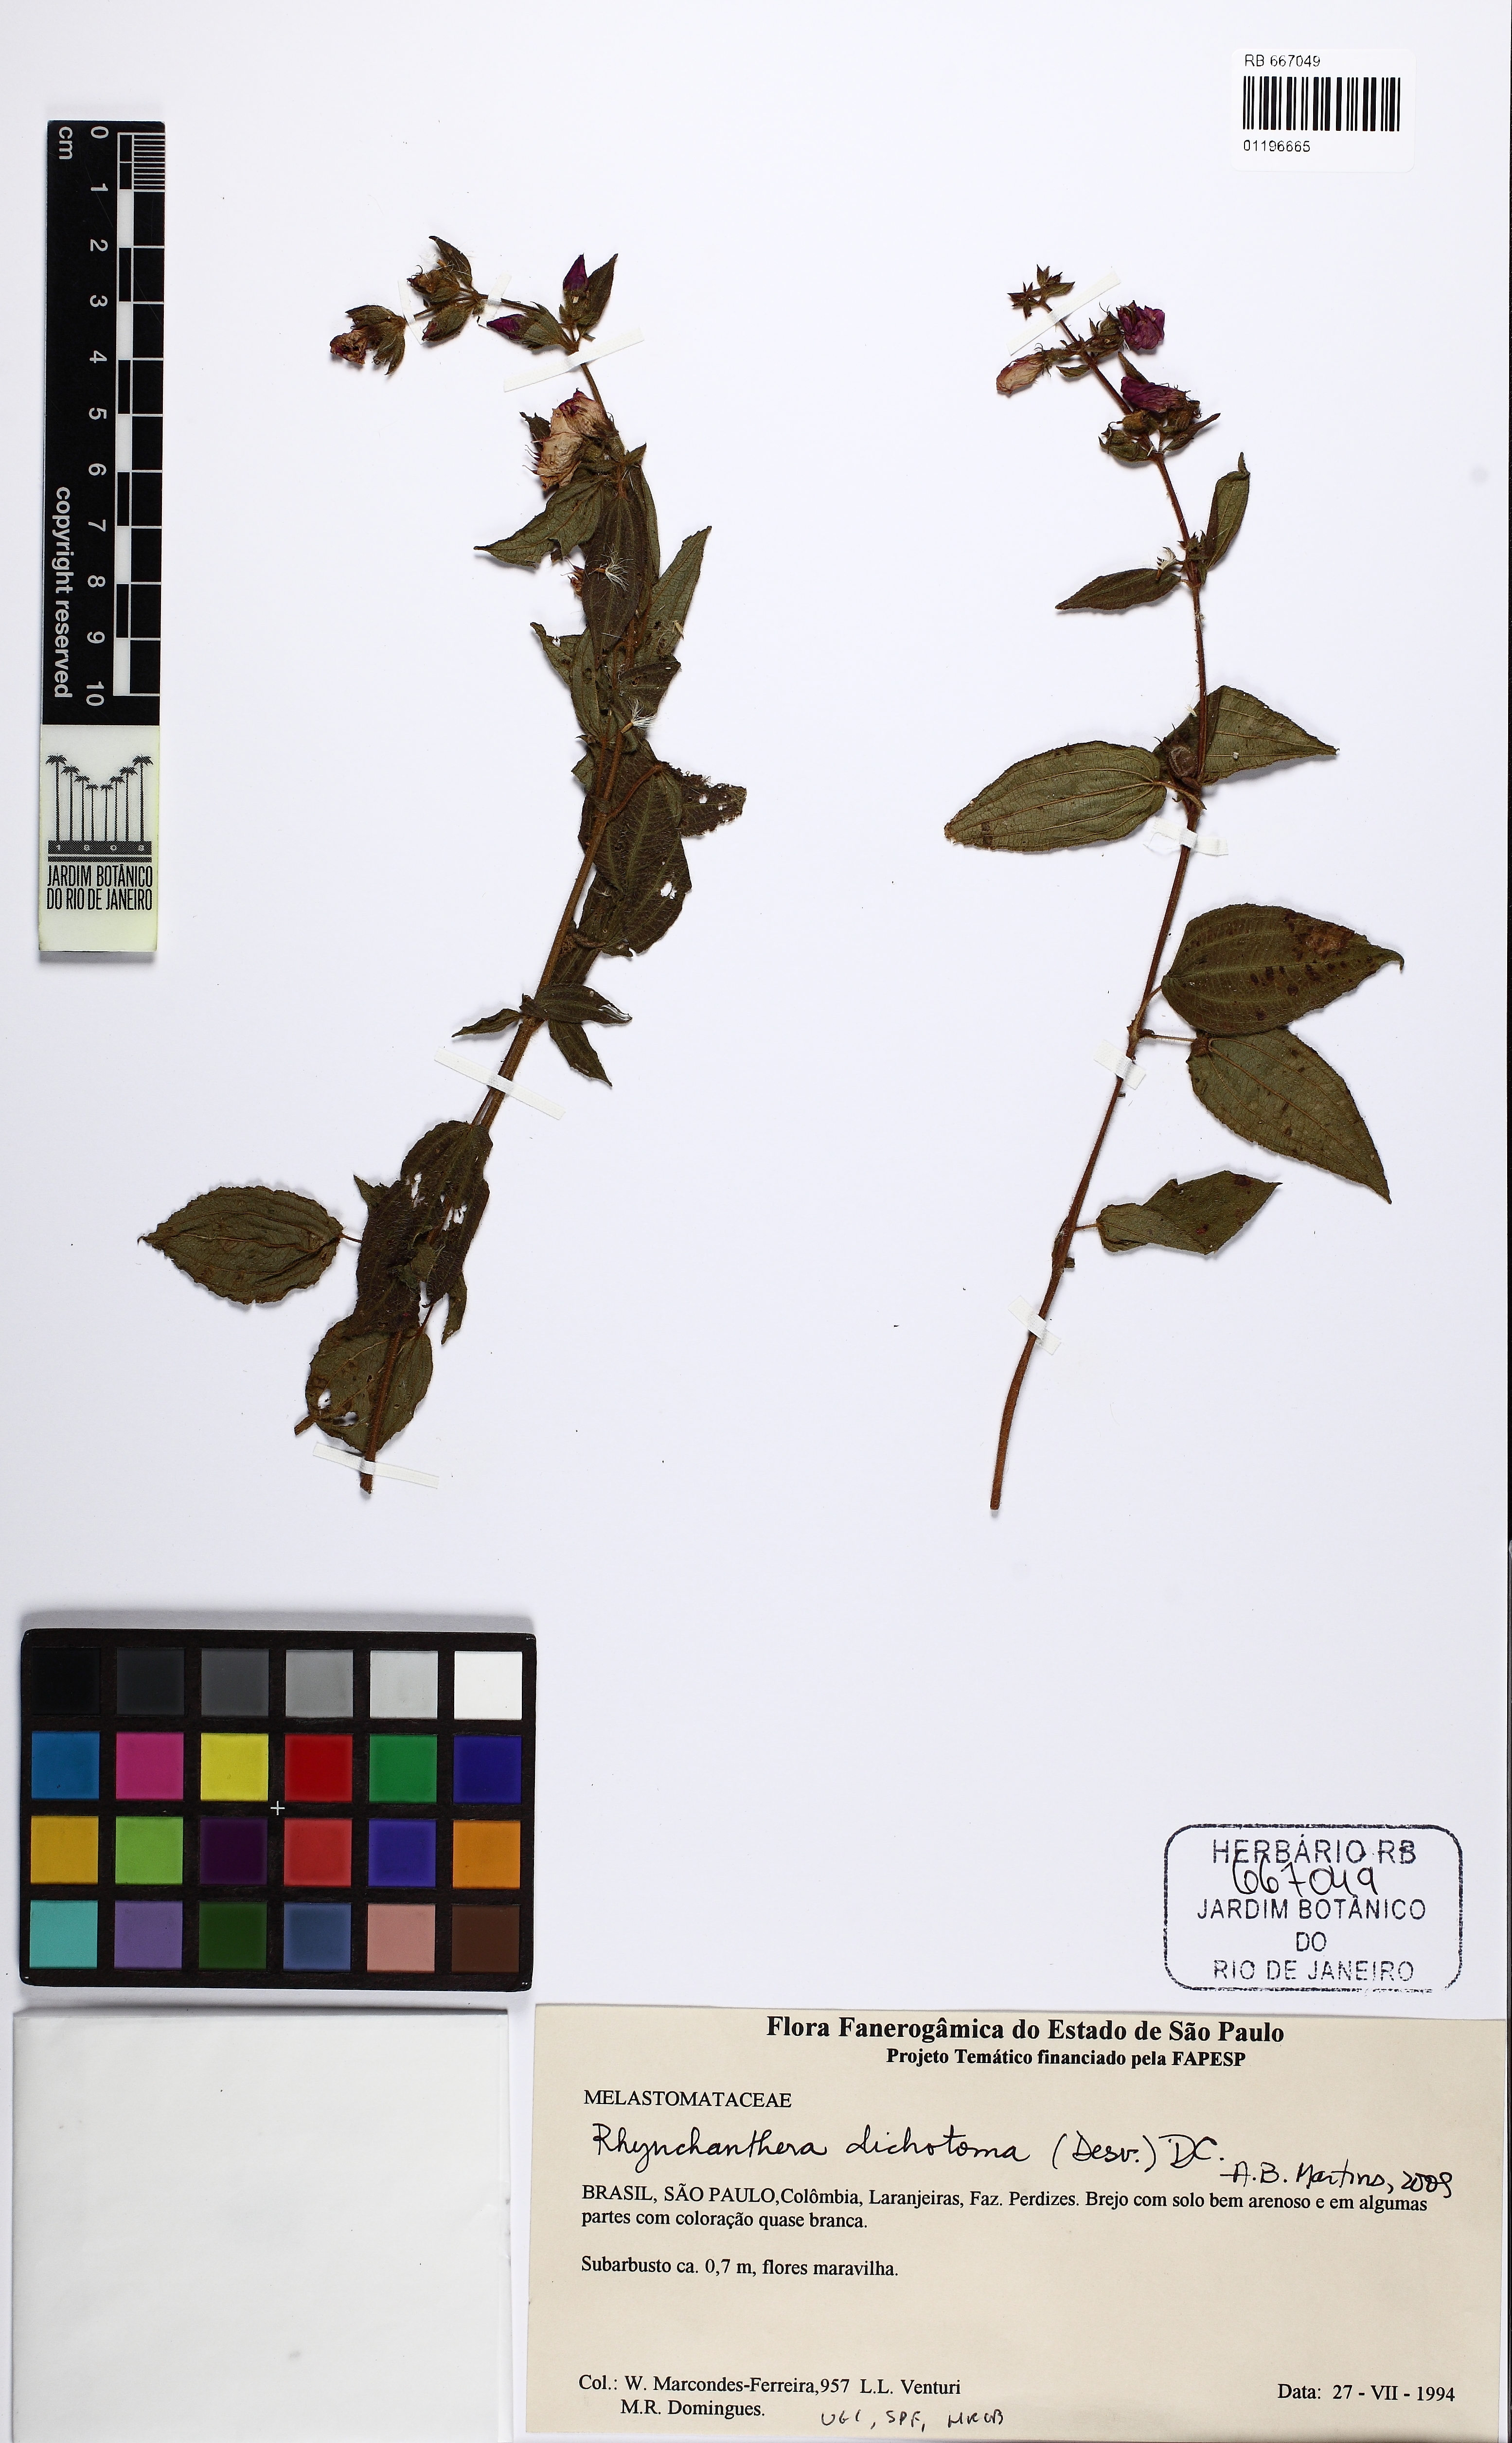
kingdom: Plantae
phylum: Tracheophyta
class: Magnoliopsida
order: Myrtales
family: Melastomataceae
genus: Rhynchanthera
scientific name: Rhynchanthera dichotoma
